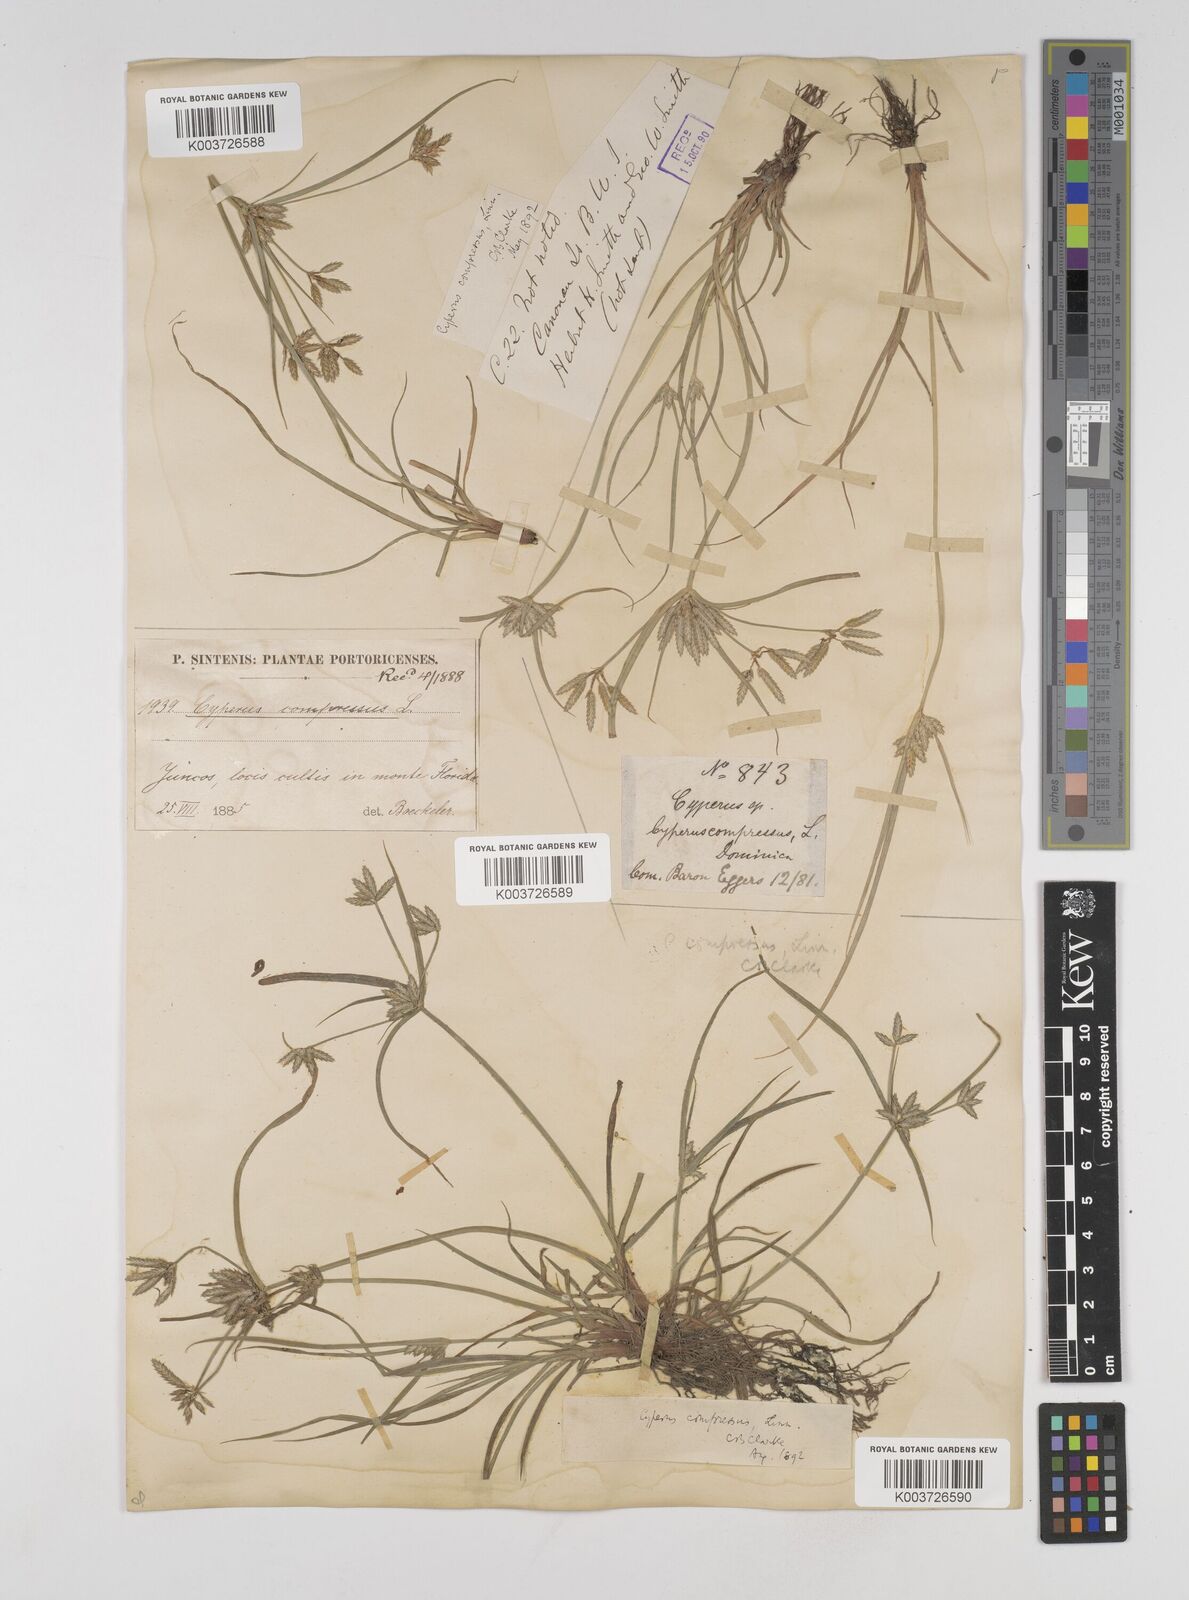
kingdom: Plantae
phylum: Tracheophyta
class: Liliopsida
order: Poales
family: Cyperaceae
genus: Cyperus
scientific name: Cyperus compressus
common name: Poorland flatsedge
